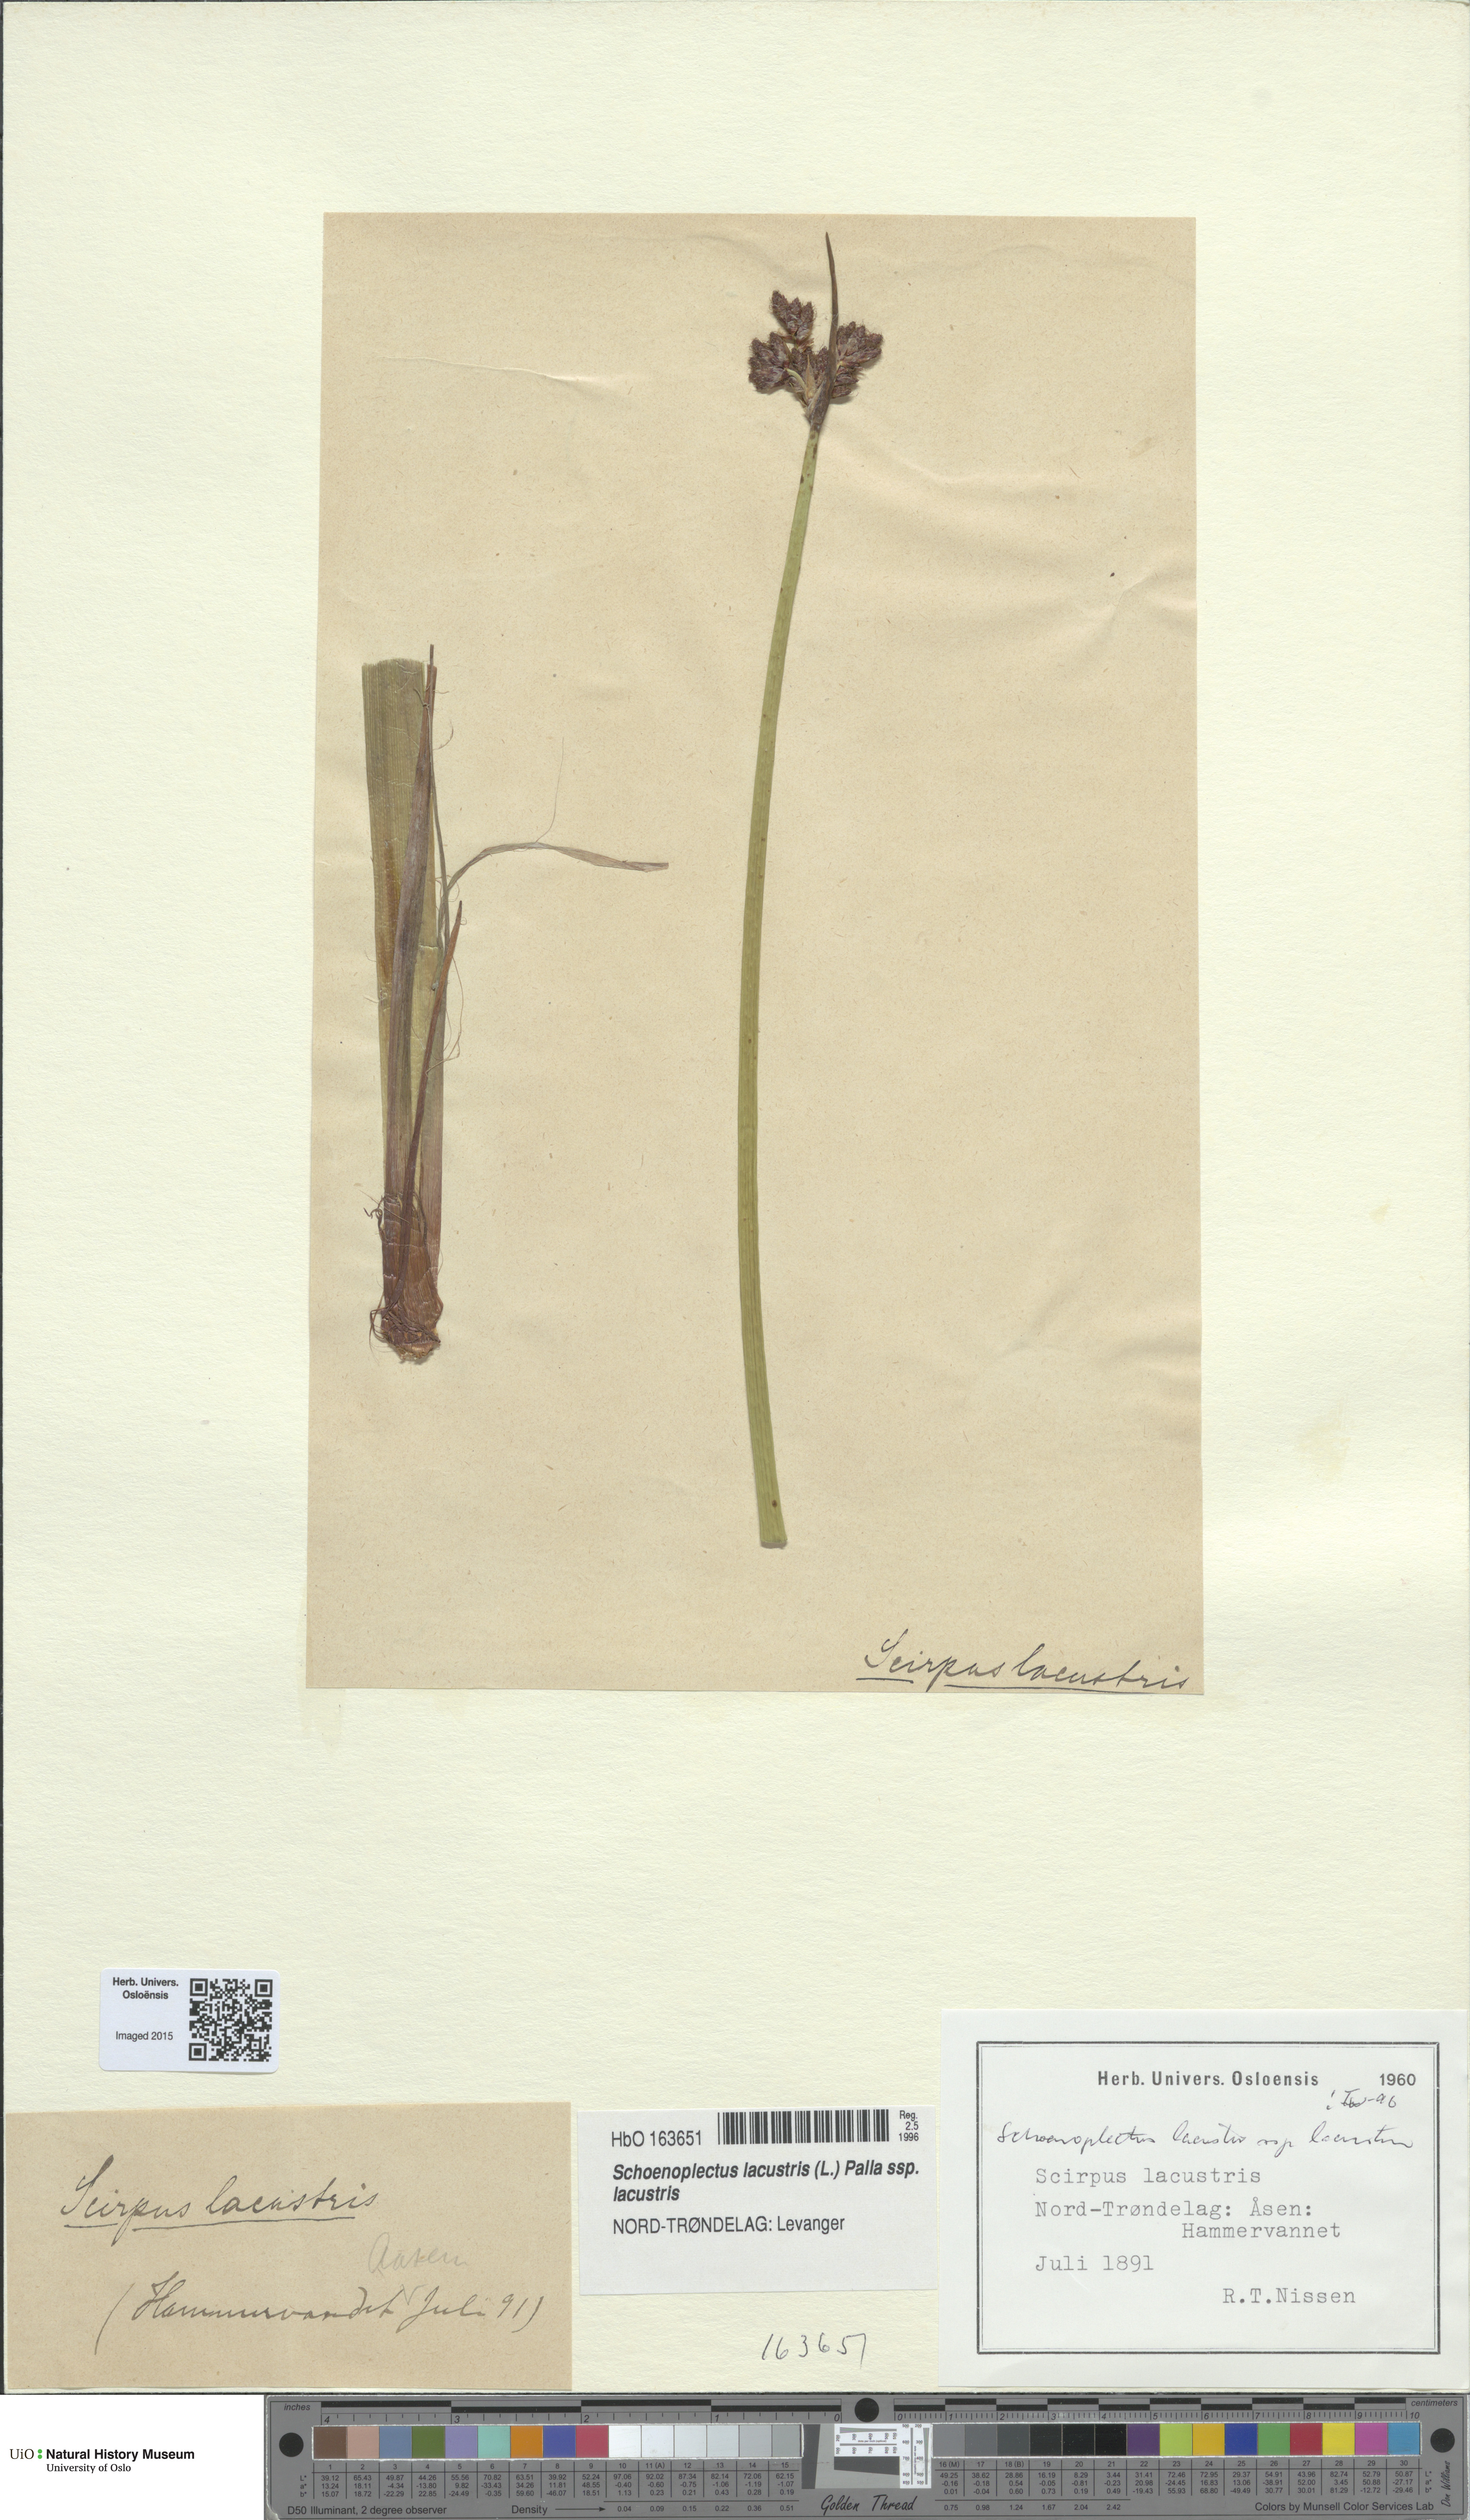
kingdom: Plantae
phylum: Tracheophyta
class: Liliopsida
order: Poales
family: Cyperaceae
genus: Schoenoplectus
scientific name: Schoenoplectus lacustris
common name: Common club-rush
